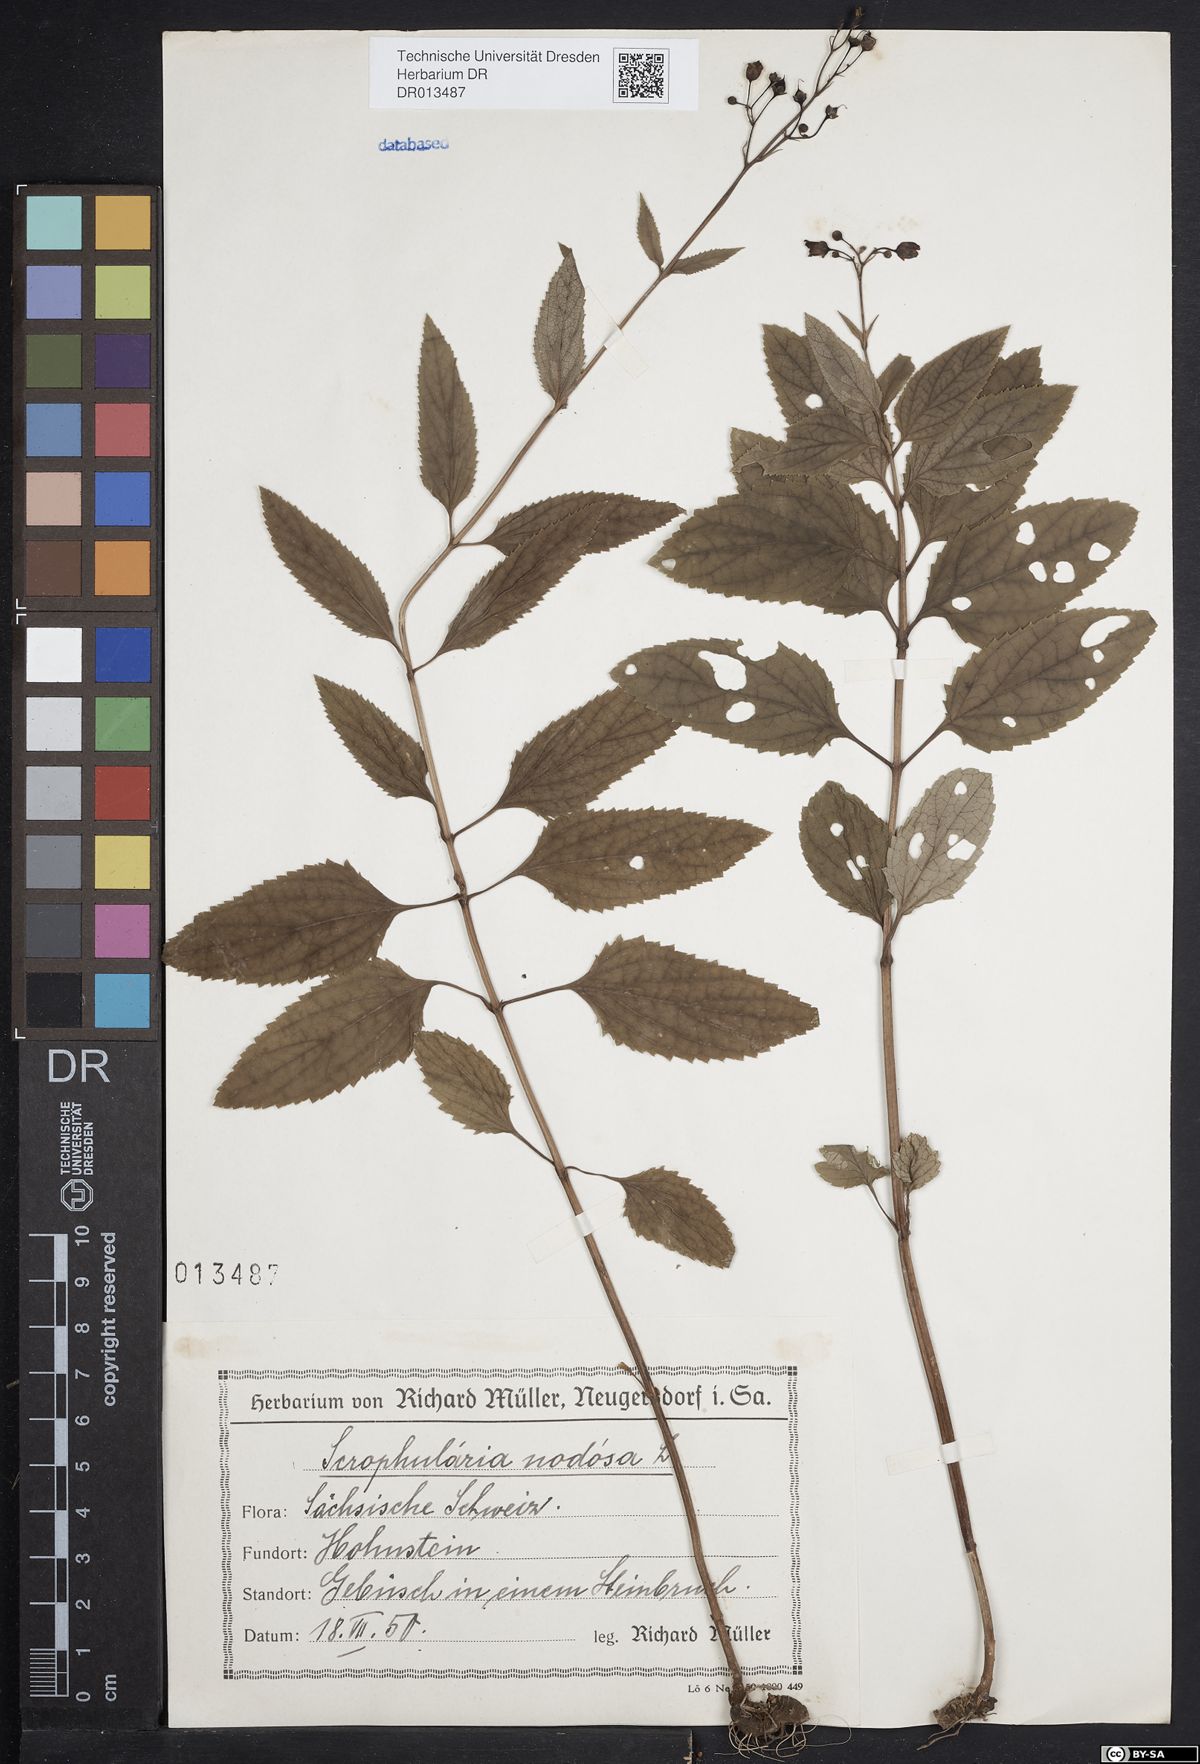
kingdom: Plantae
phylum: Tracheophyta
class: Magnoliopsida
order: Lamiales
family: Scrophulariaceae
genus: Scrophularia
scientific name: Scrophularia nodosa
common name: Common figwort
